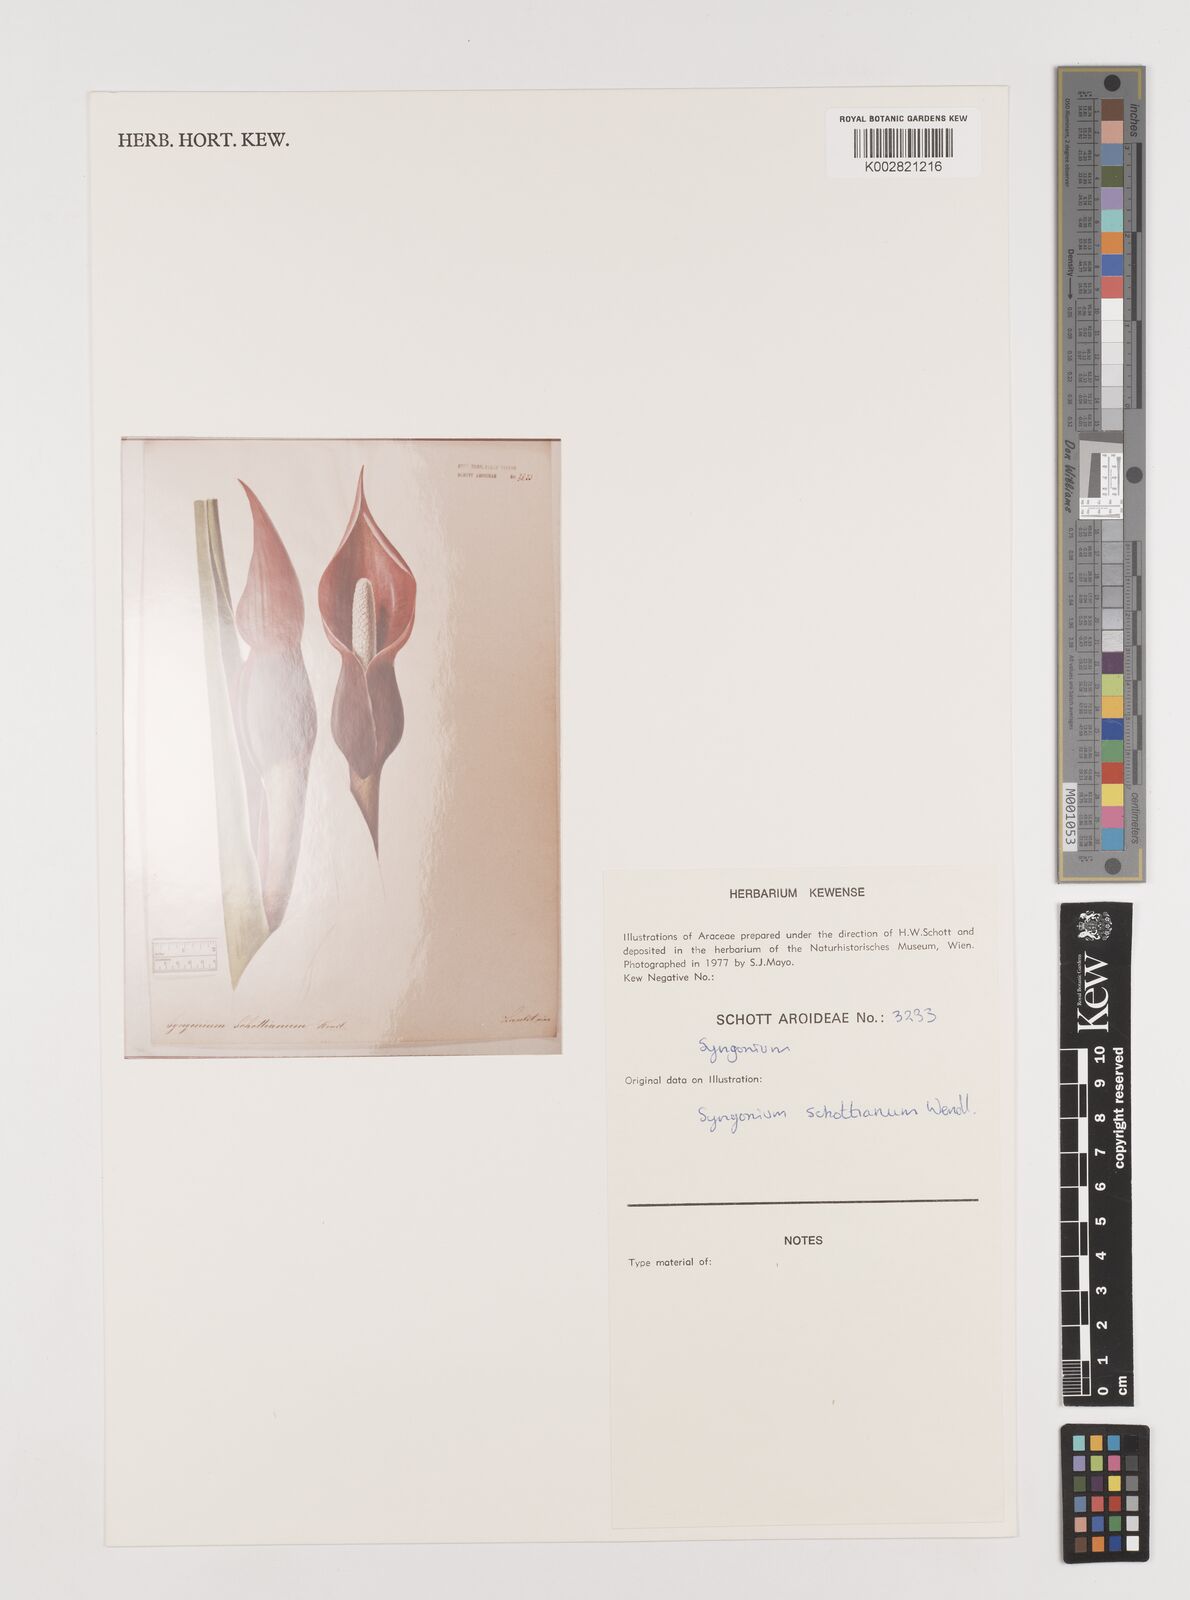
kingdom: Plantae
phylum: Tracheophyta
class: Liliopsida
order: Alismatales
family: Araceae
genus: Syngonium
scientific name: Syngonium schottianum
